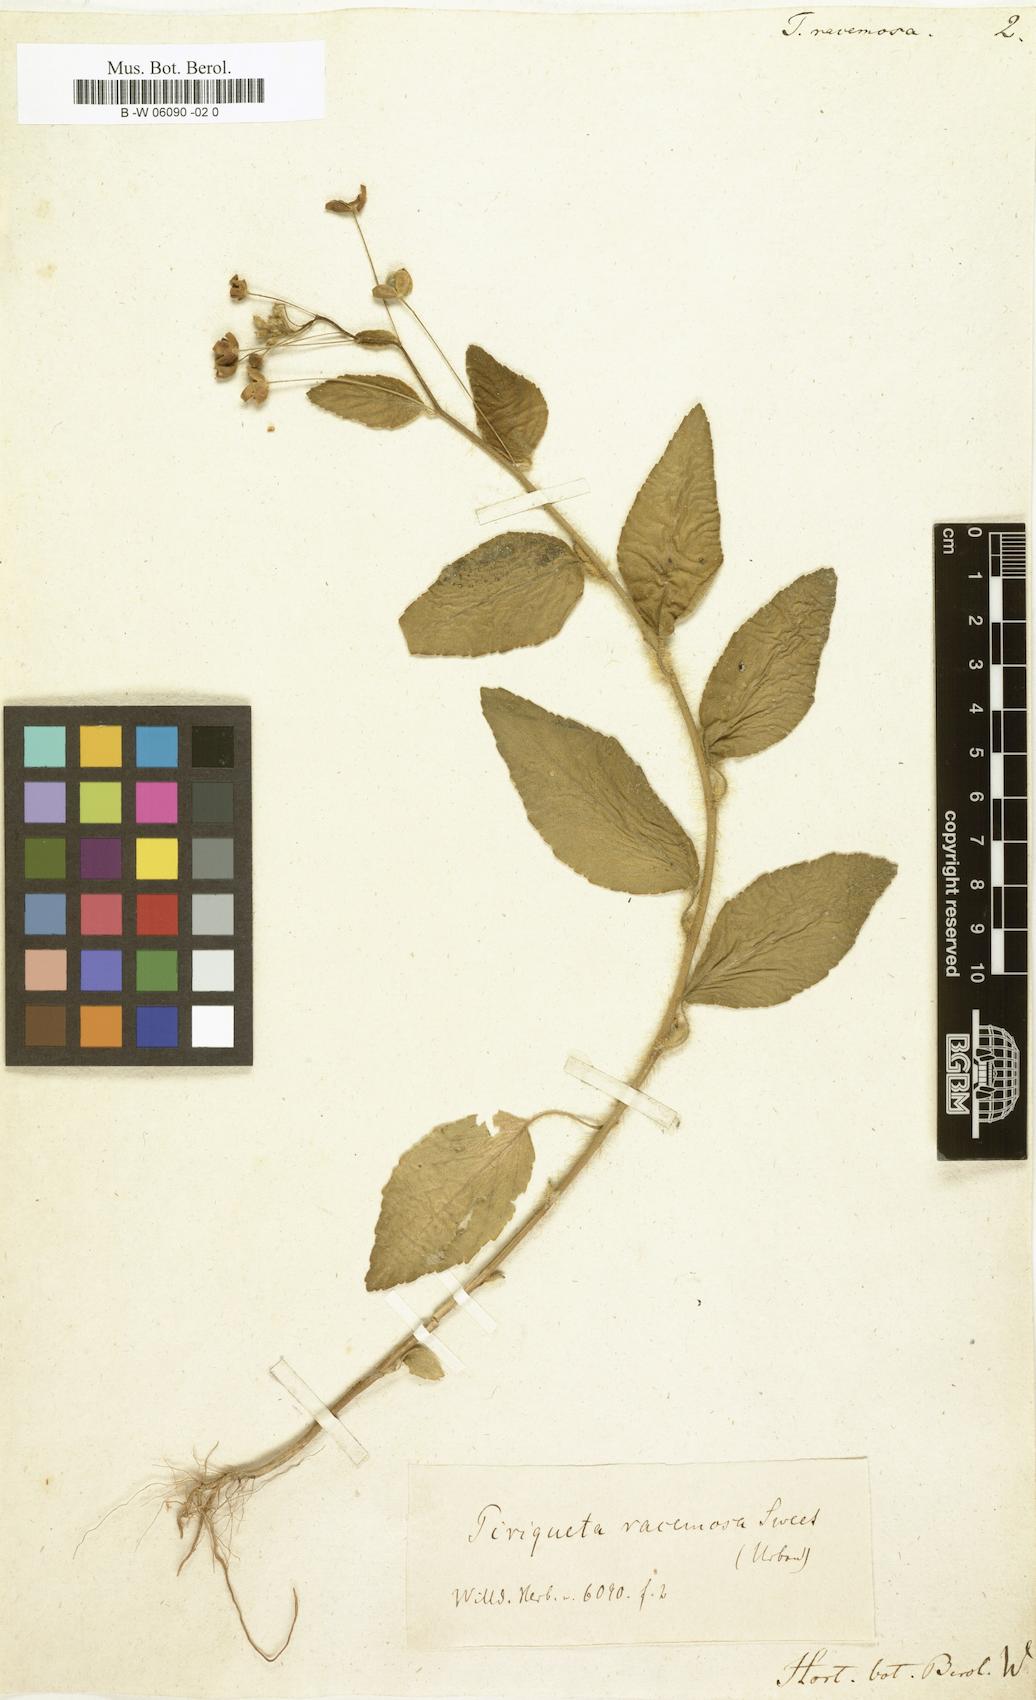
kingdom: Plantae
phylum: Tracheophyta
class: Magnoliopsida
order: Malpighiales
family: Turneraceae
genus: Piriqueta
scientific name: Piriqueta racemosa
